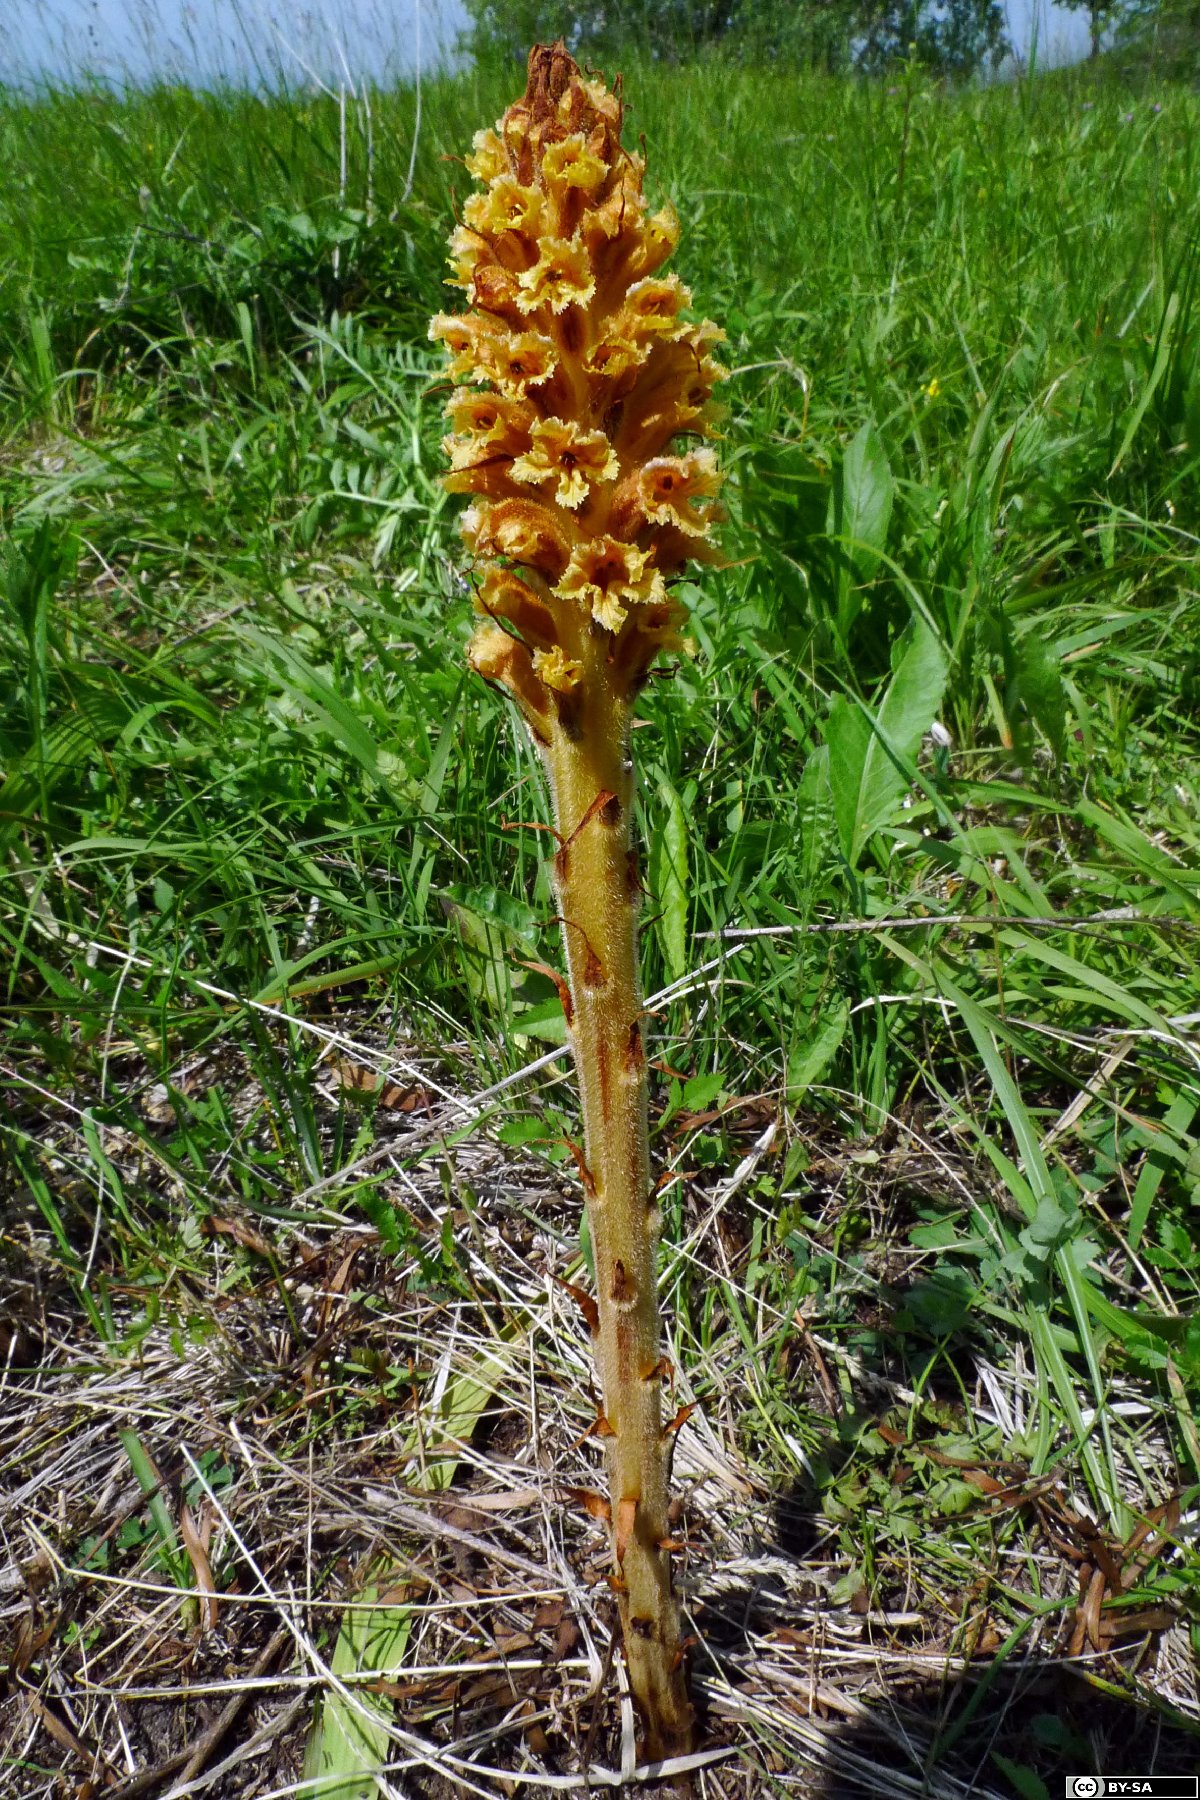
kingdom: Plantae
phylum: Tracheophyta
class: Magnoliopsida
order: Lamiales
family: Orobanchaceae
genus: Orobanche
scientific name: Orobanche elatior
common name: Knapweed broomrape
